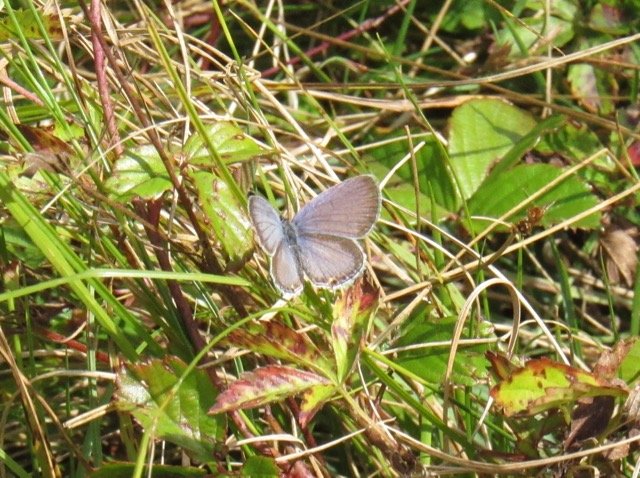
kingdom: Animalia
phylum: Arthropoda
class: Insecta
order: Lepidoptera
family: Lycaenidae
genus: Elkalyce
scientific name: Elkalyce comyntas
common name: Eastern Tailed-Blue
